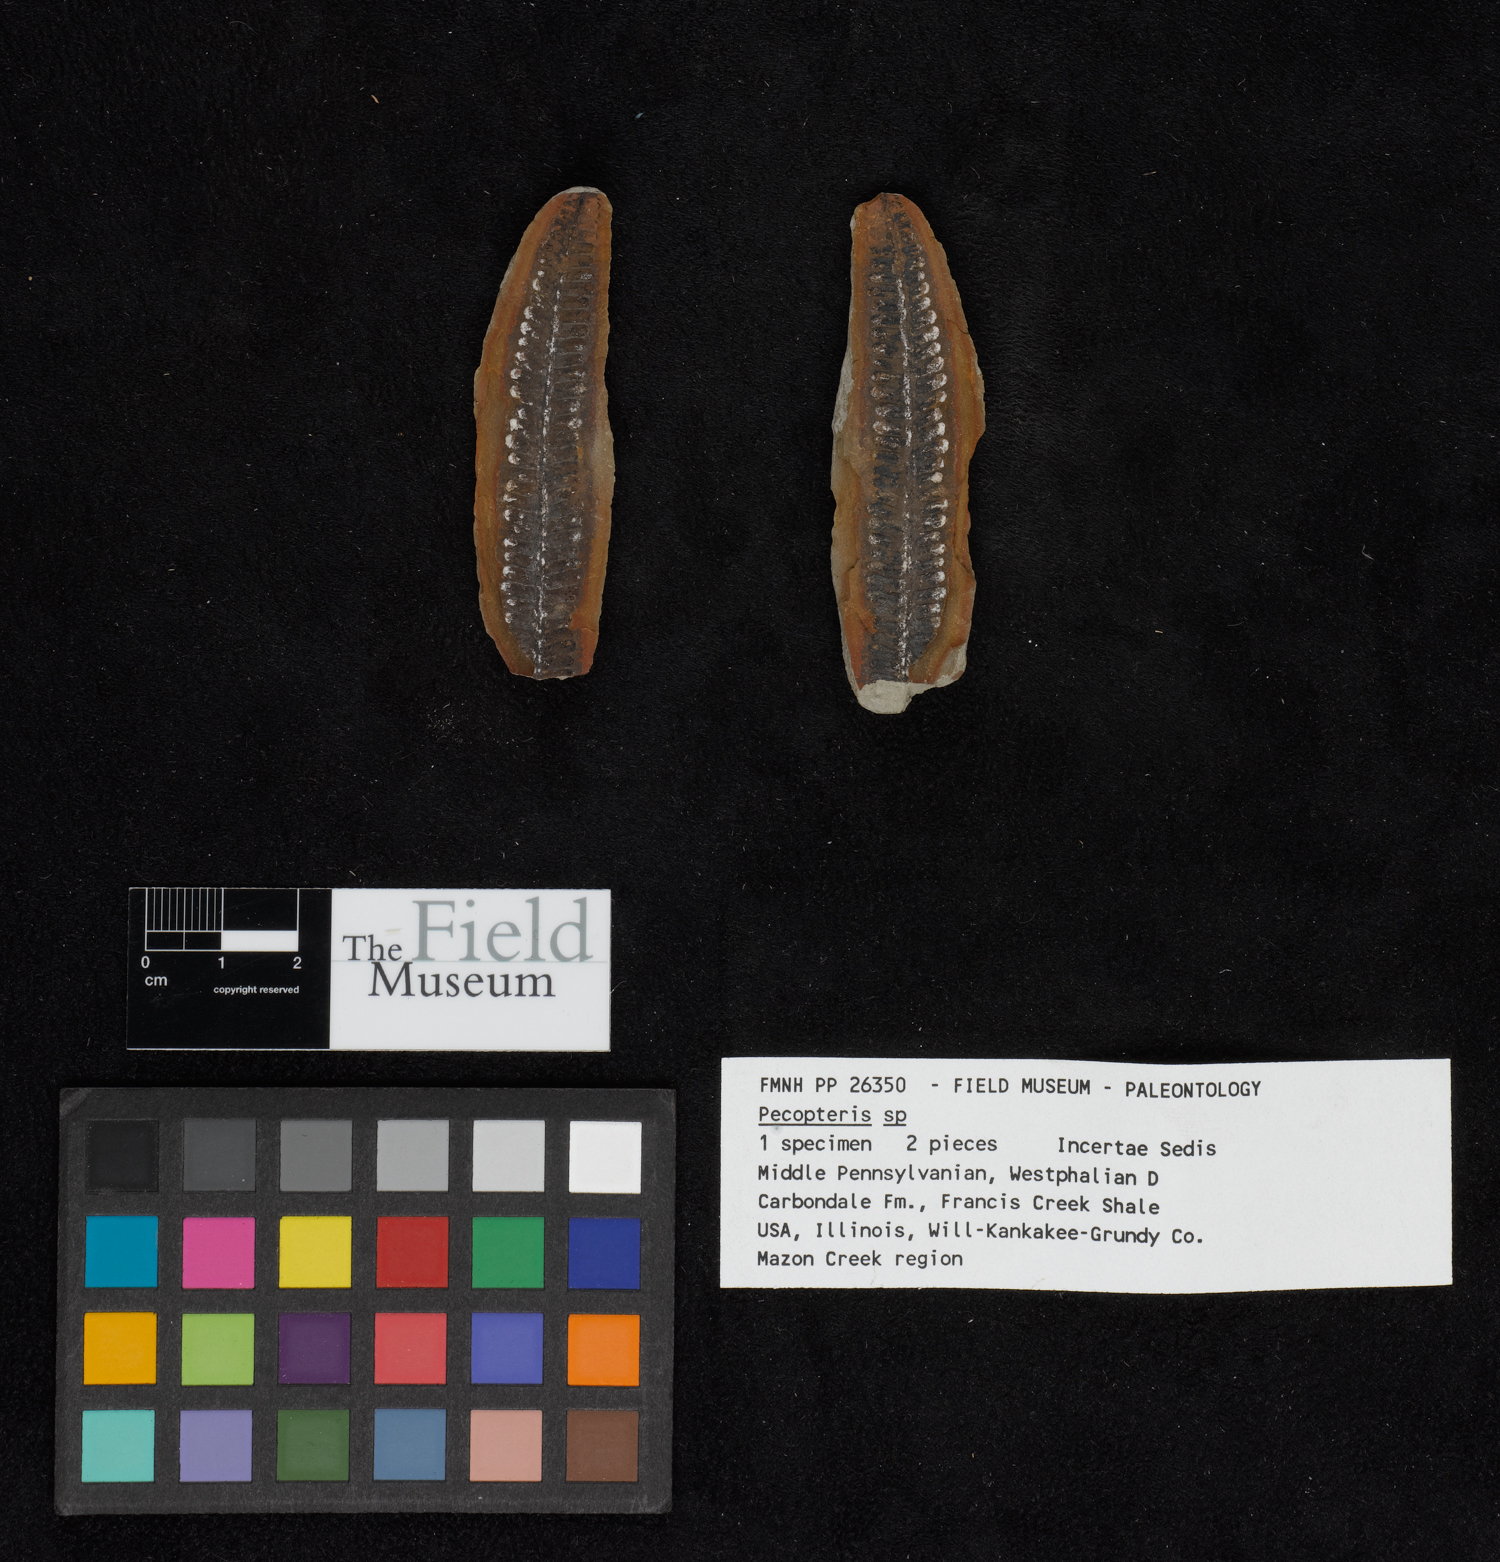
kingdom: Plantae
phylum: Tracheophyta
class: Polypodiopsida
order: Marattiales
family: Asterothecaceae
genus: Pecopteris
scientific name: Pecopteris
